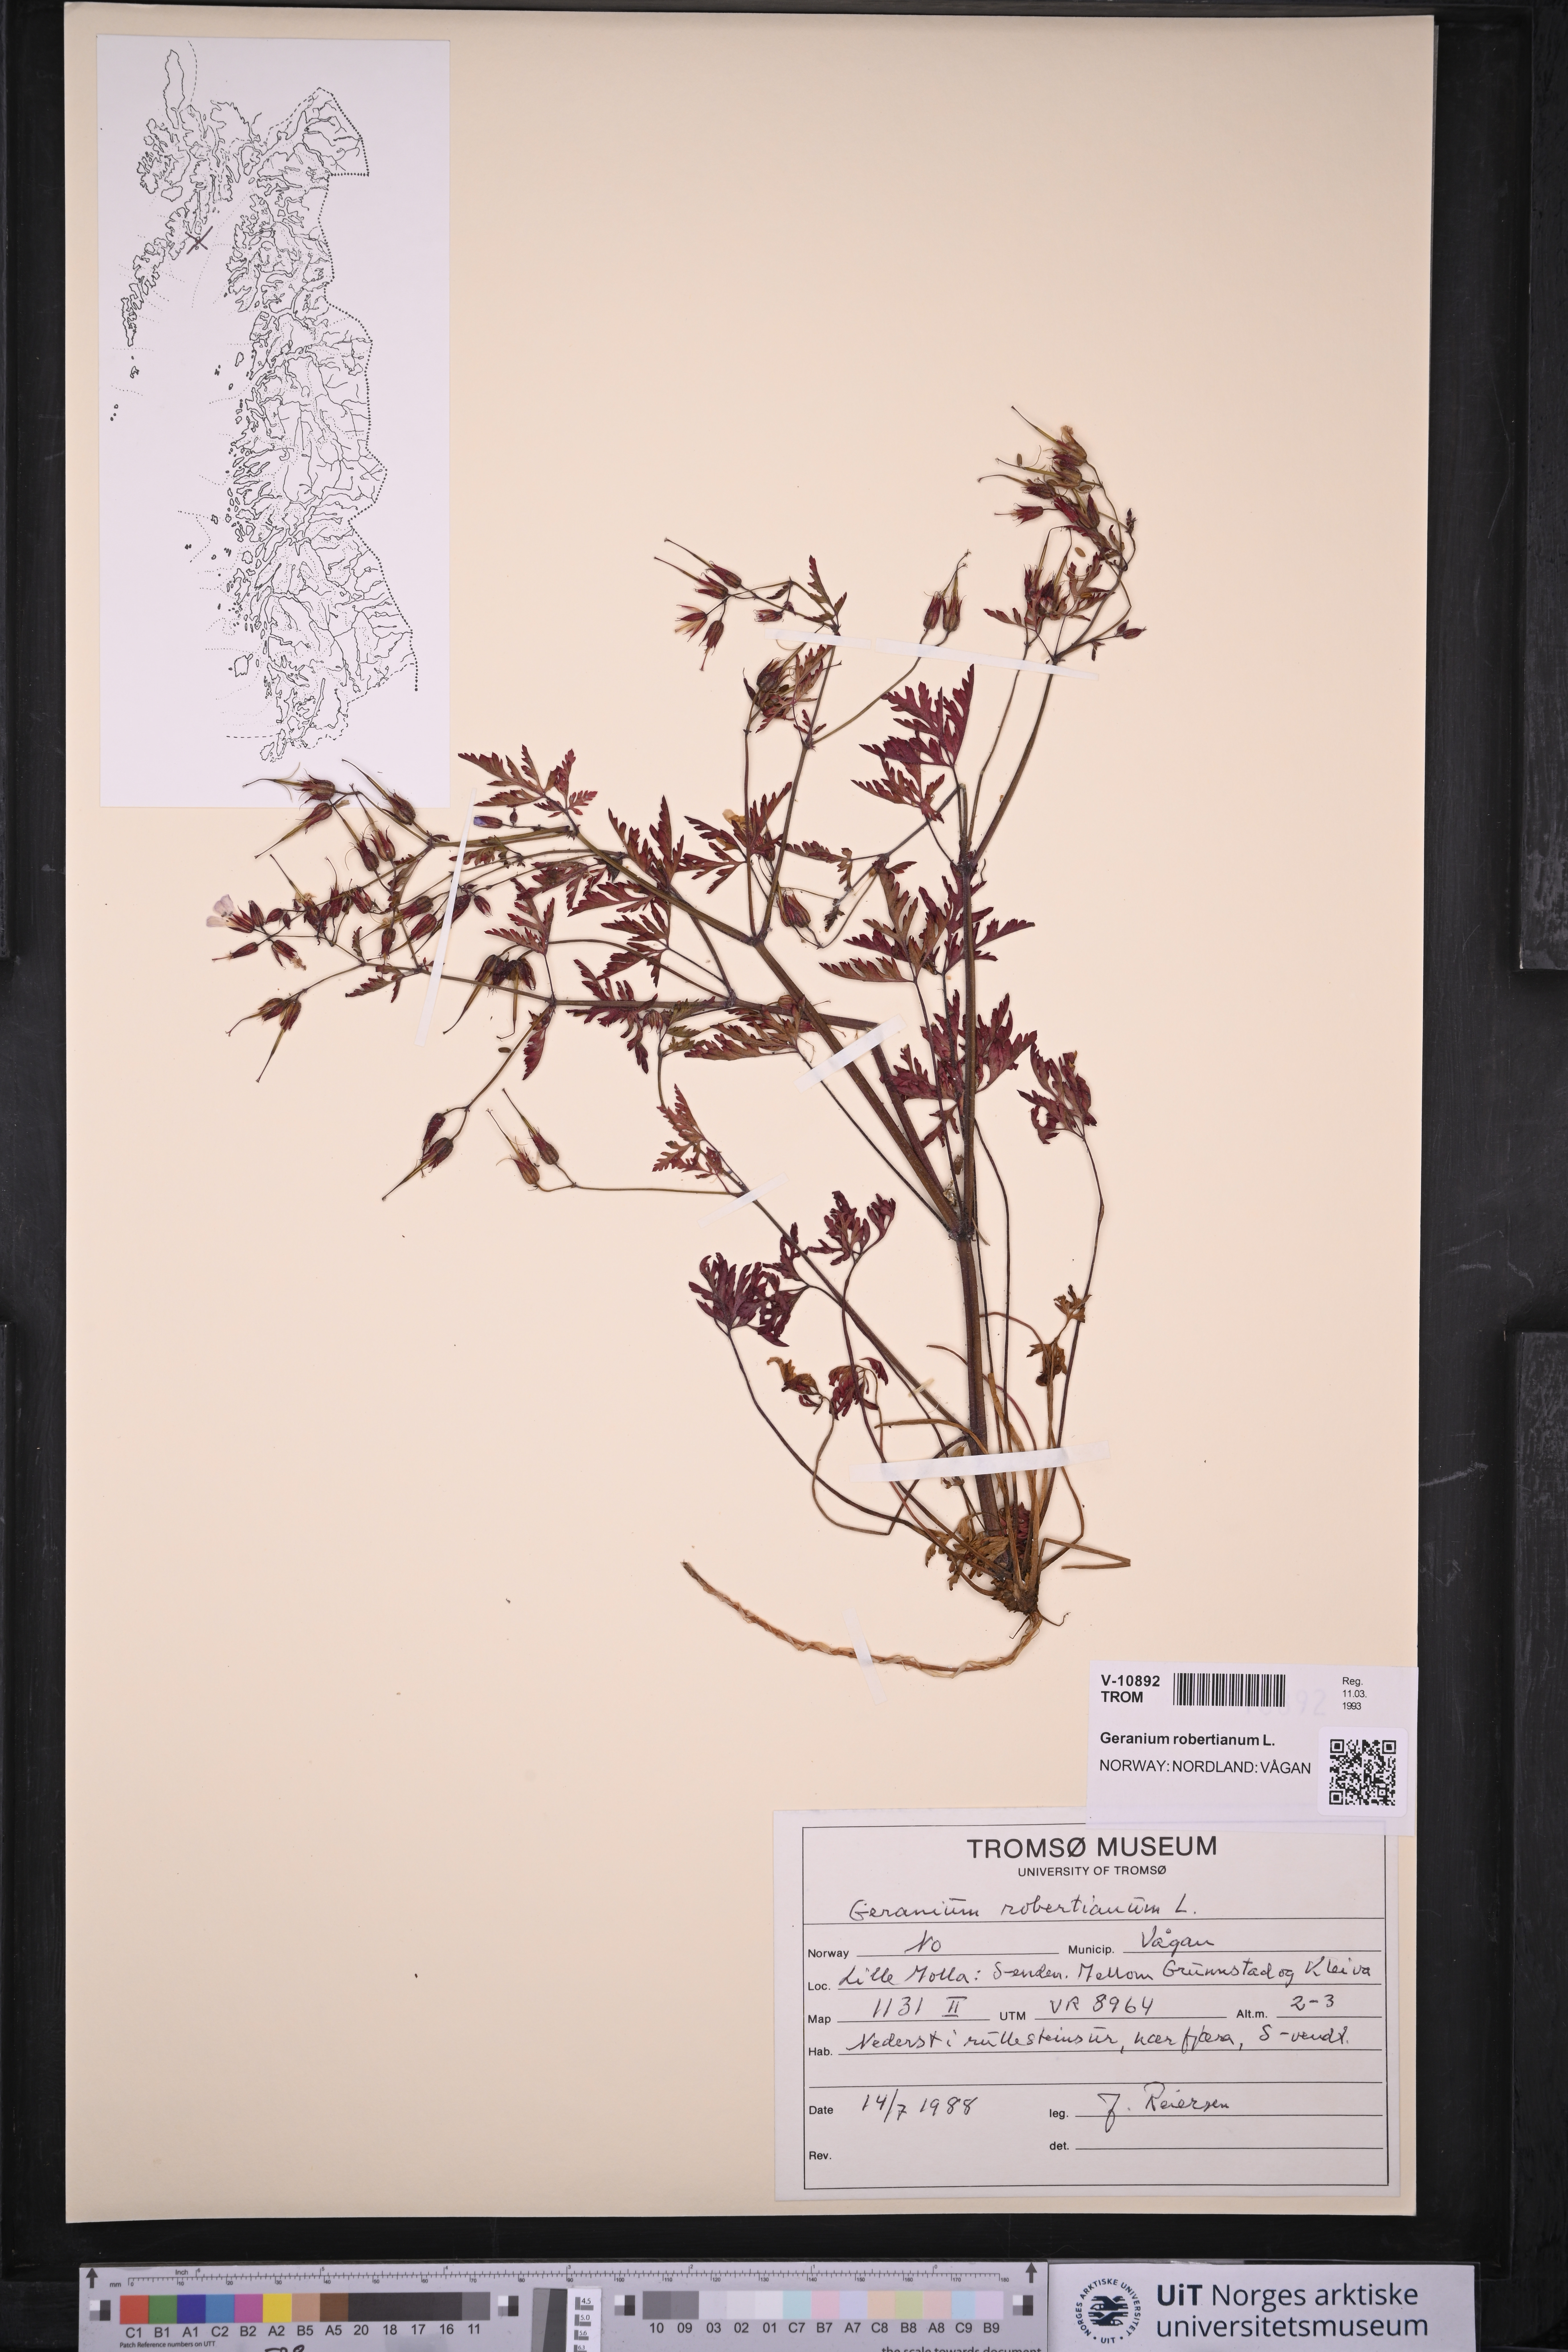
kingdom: Plantae
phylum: Tracheophyta
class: Magnoliopsida
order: Geraniales
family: Geraniaceae
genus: Geranium
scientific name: Geranium robertianum
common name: Herb-robert
